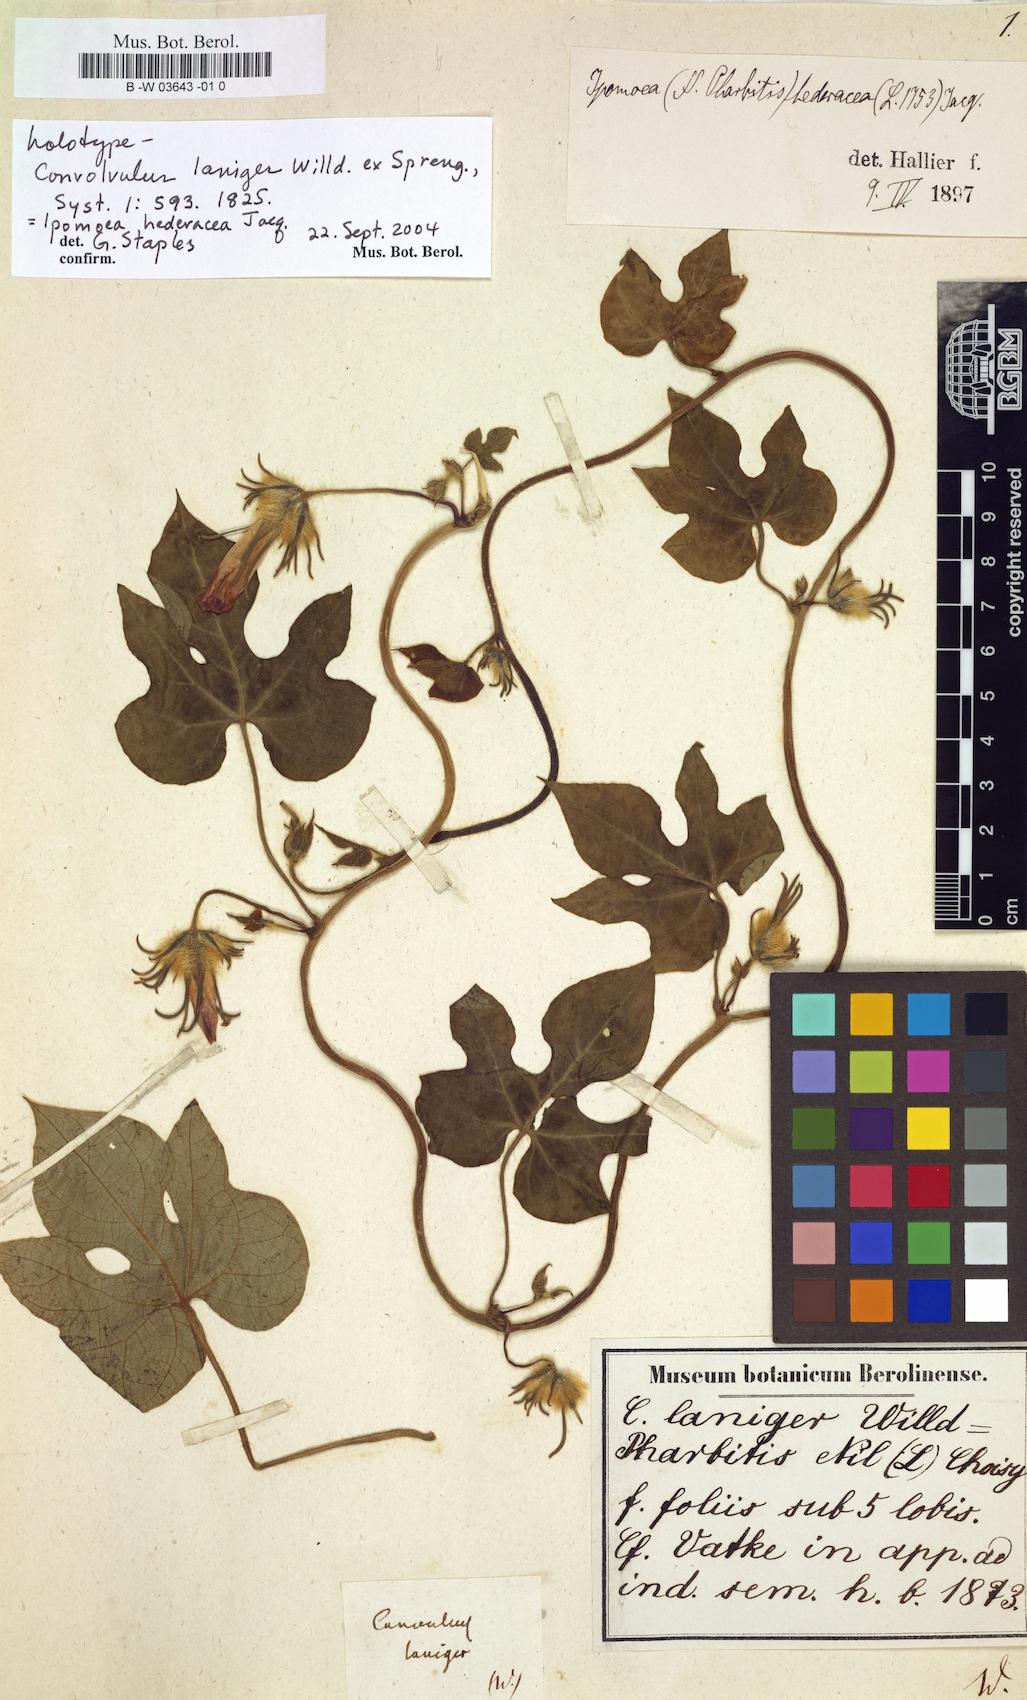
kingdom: Plantae
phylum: Tracheophyta
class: Magnoliopsida
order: Solanales
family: Convolvulaceae
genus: Convolvulus
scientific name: Convolvulus laniger
